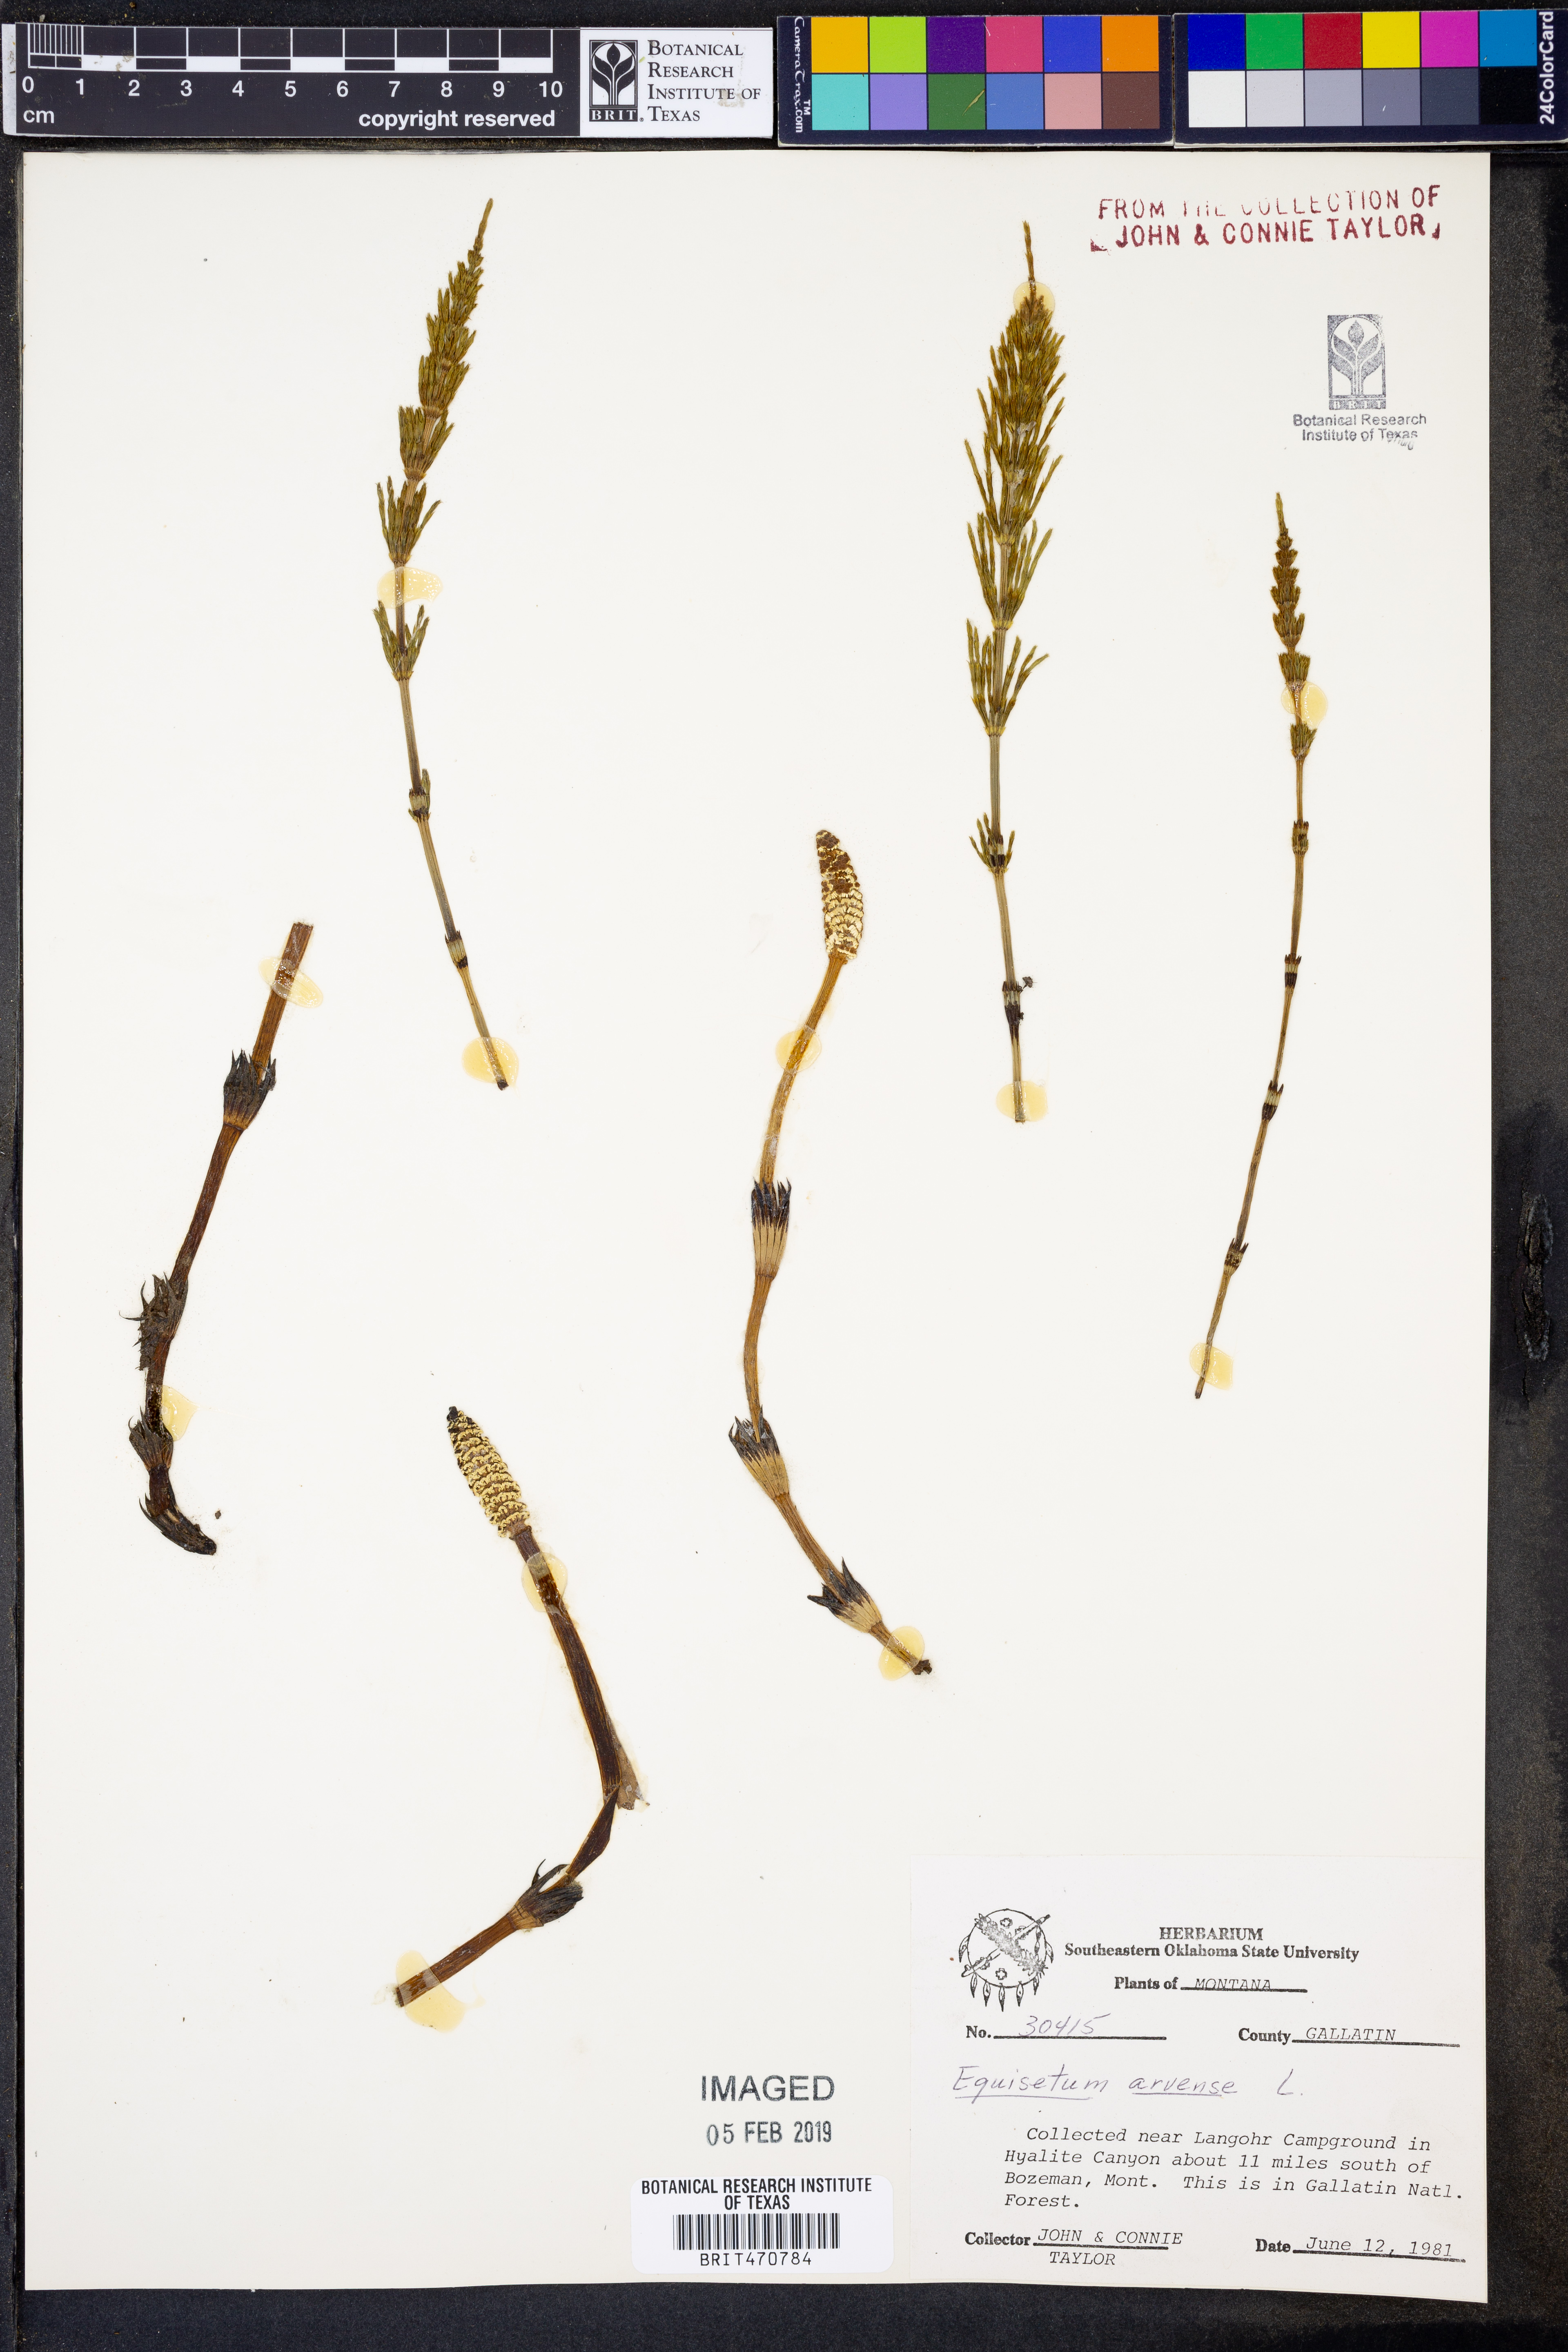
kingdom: Plantae
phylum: Tracheophyta
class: Polypodiopsida
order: Equisetales
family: Equisetaceae
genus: Equisetum
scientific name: Equisetum arvense
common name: Field horsetail
